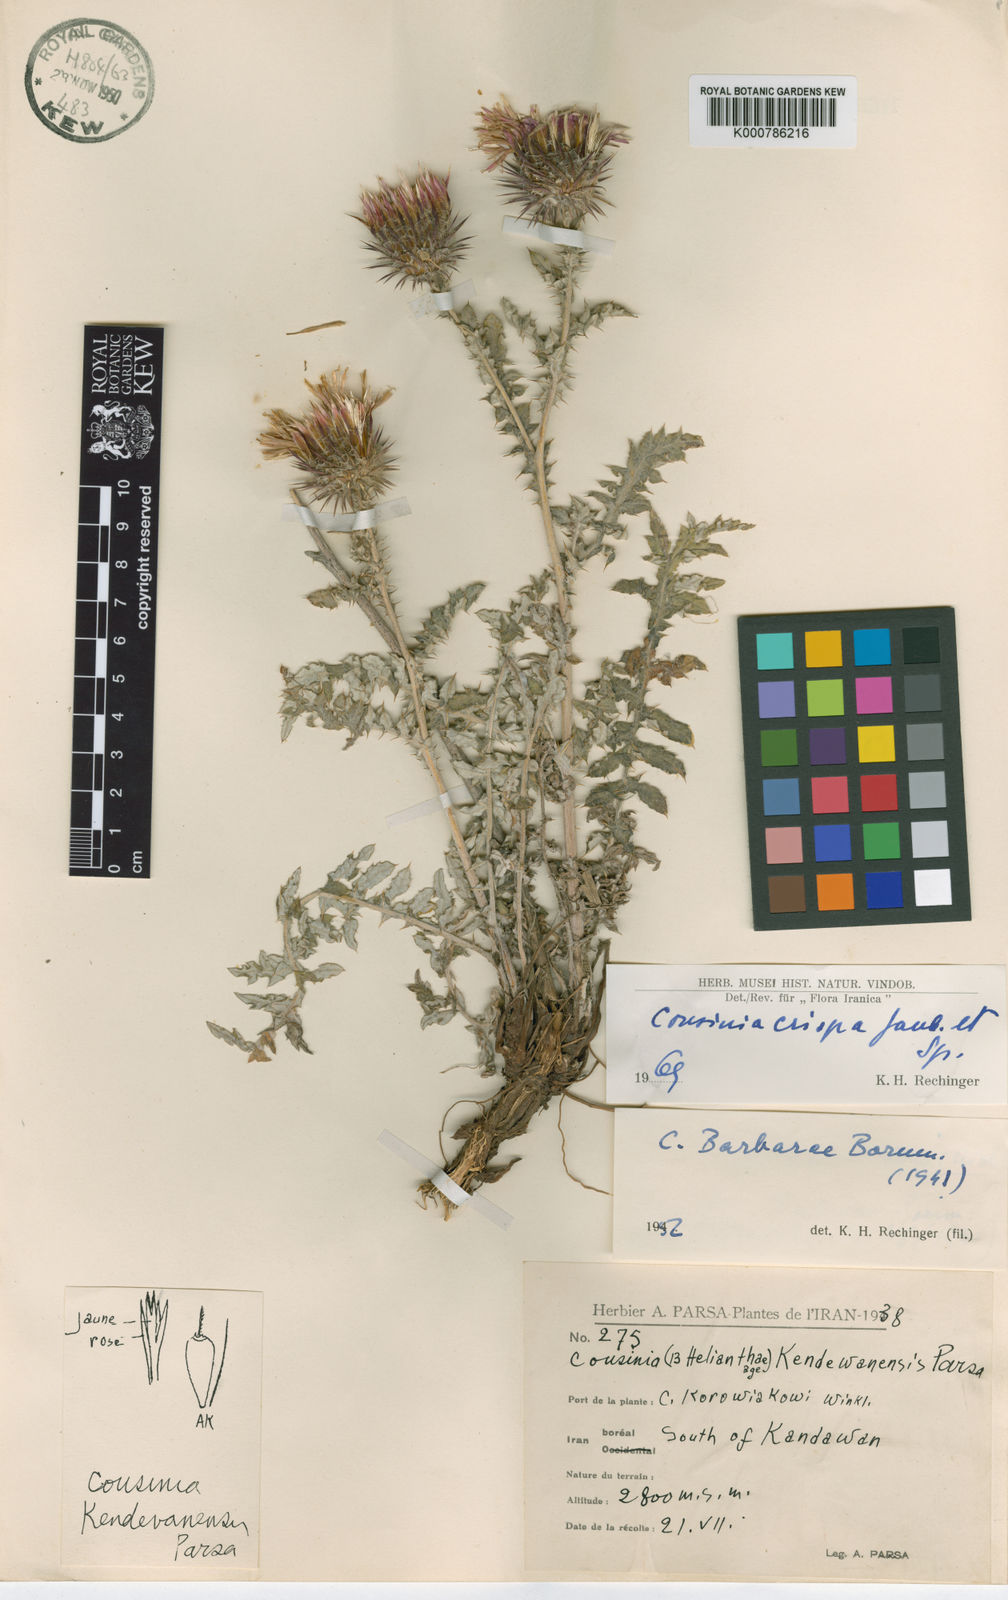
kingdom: Plantae
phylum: Tracheophyta
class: Magnoliopsida
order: Asterales
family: Asteraceae
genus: Cousinia
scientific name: Cousinia crispa
